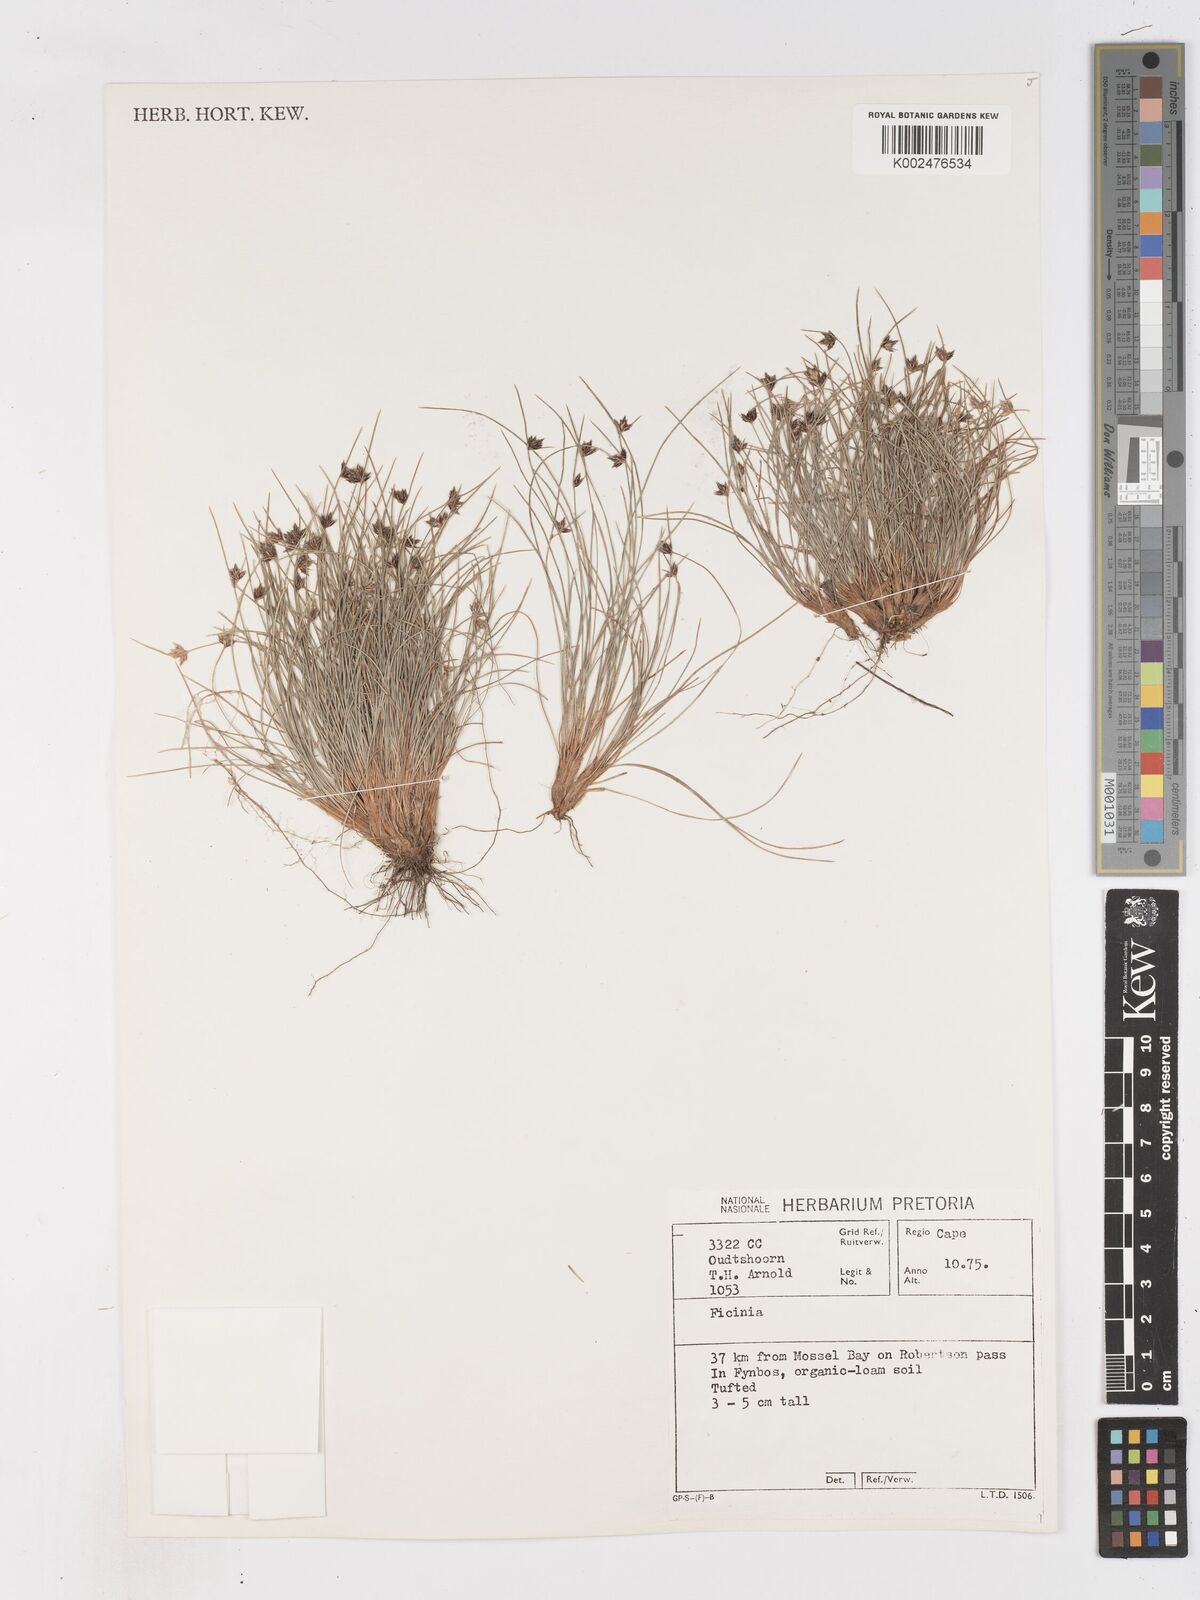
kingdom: Plantae
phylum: Tracheophyta
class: Liliopsida
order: Poales
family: Cyperaceae
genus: Ficinia
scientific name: Ficinia
